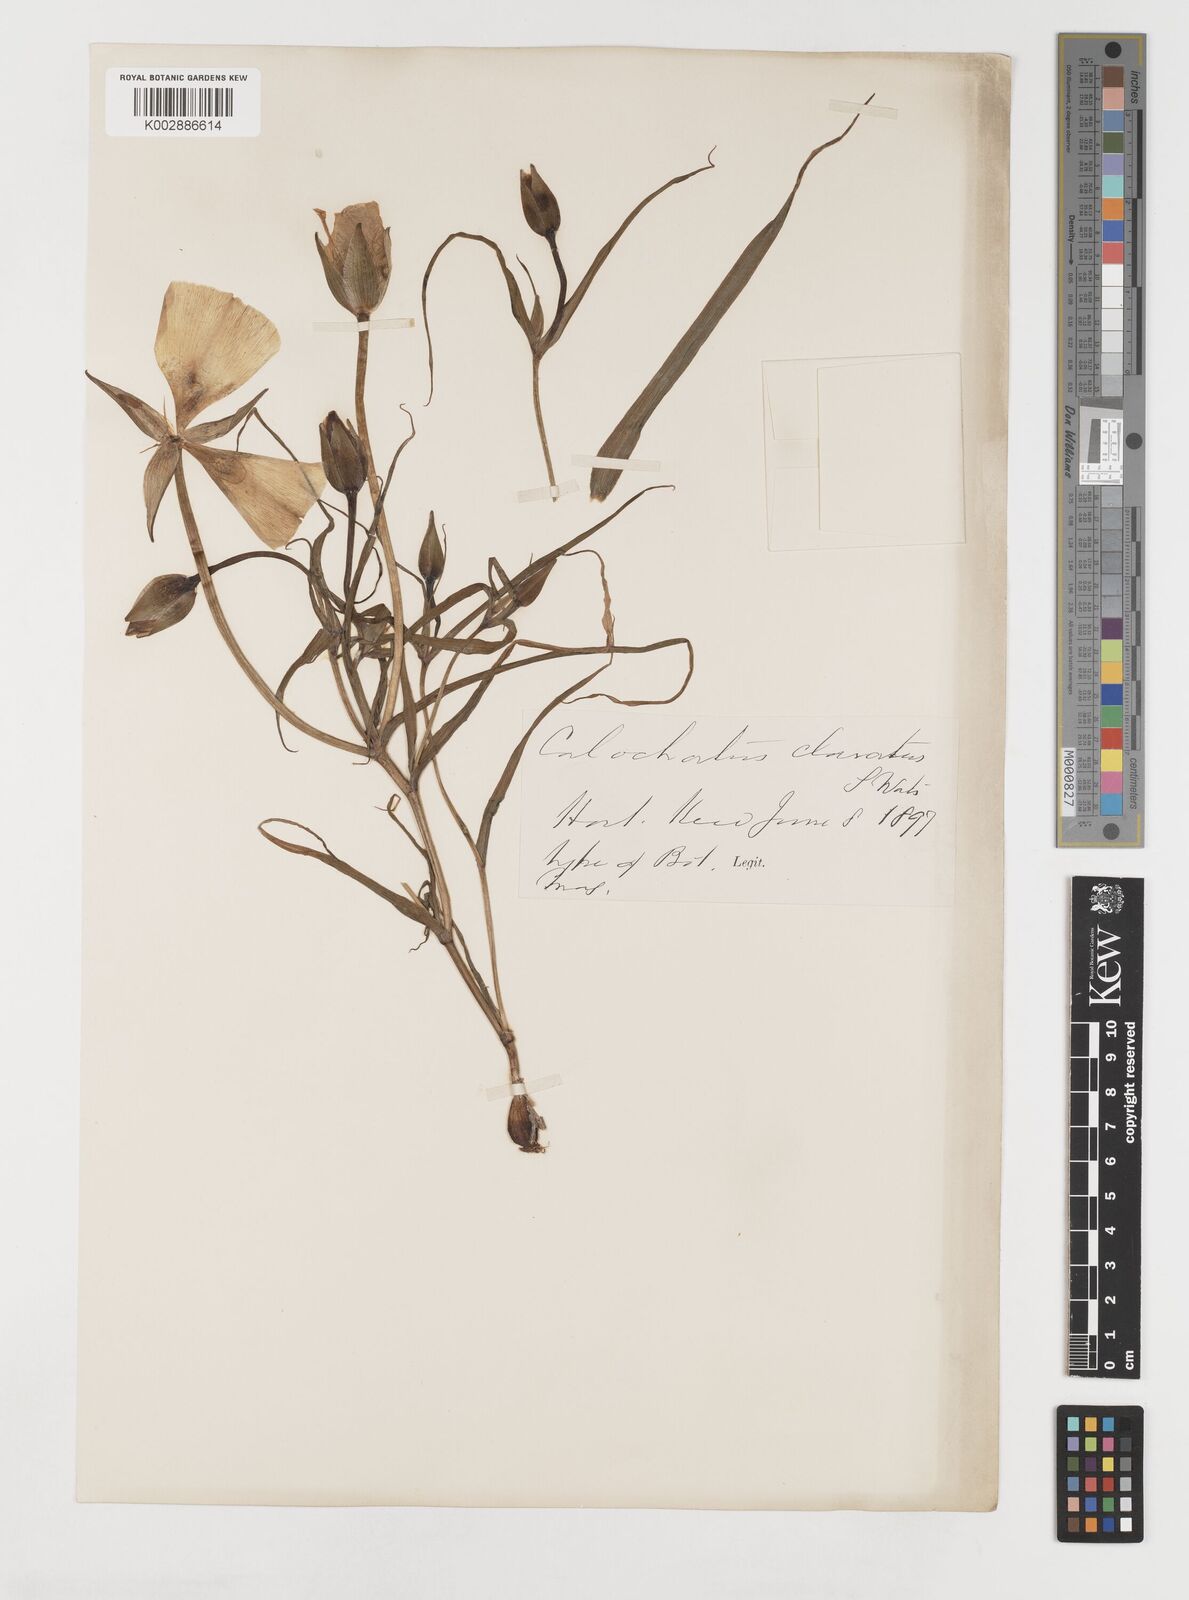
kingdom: Plantae
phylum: Tracheophyta
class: Liliopsida
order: Liliales
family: Liliaceae
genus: Calochortus
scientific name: Calochortus clavatus
